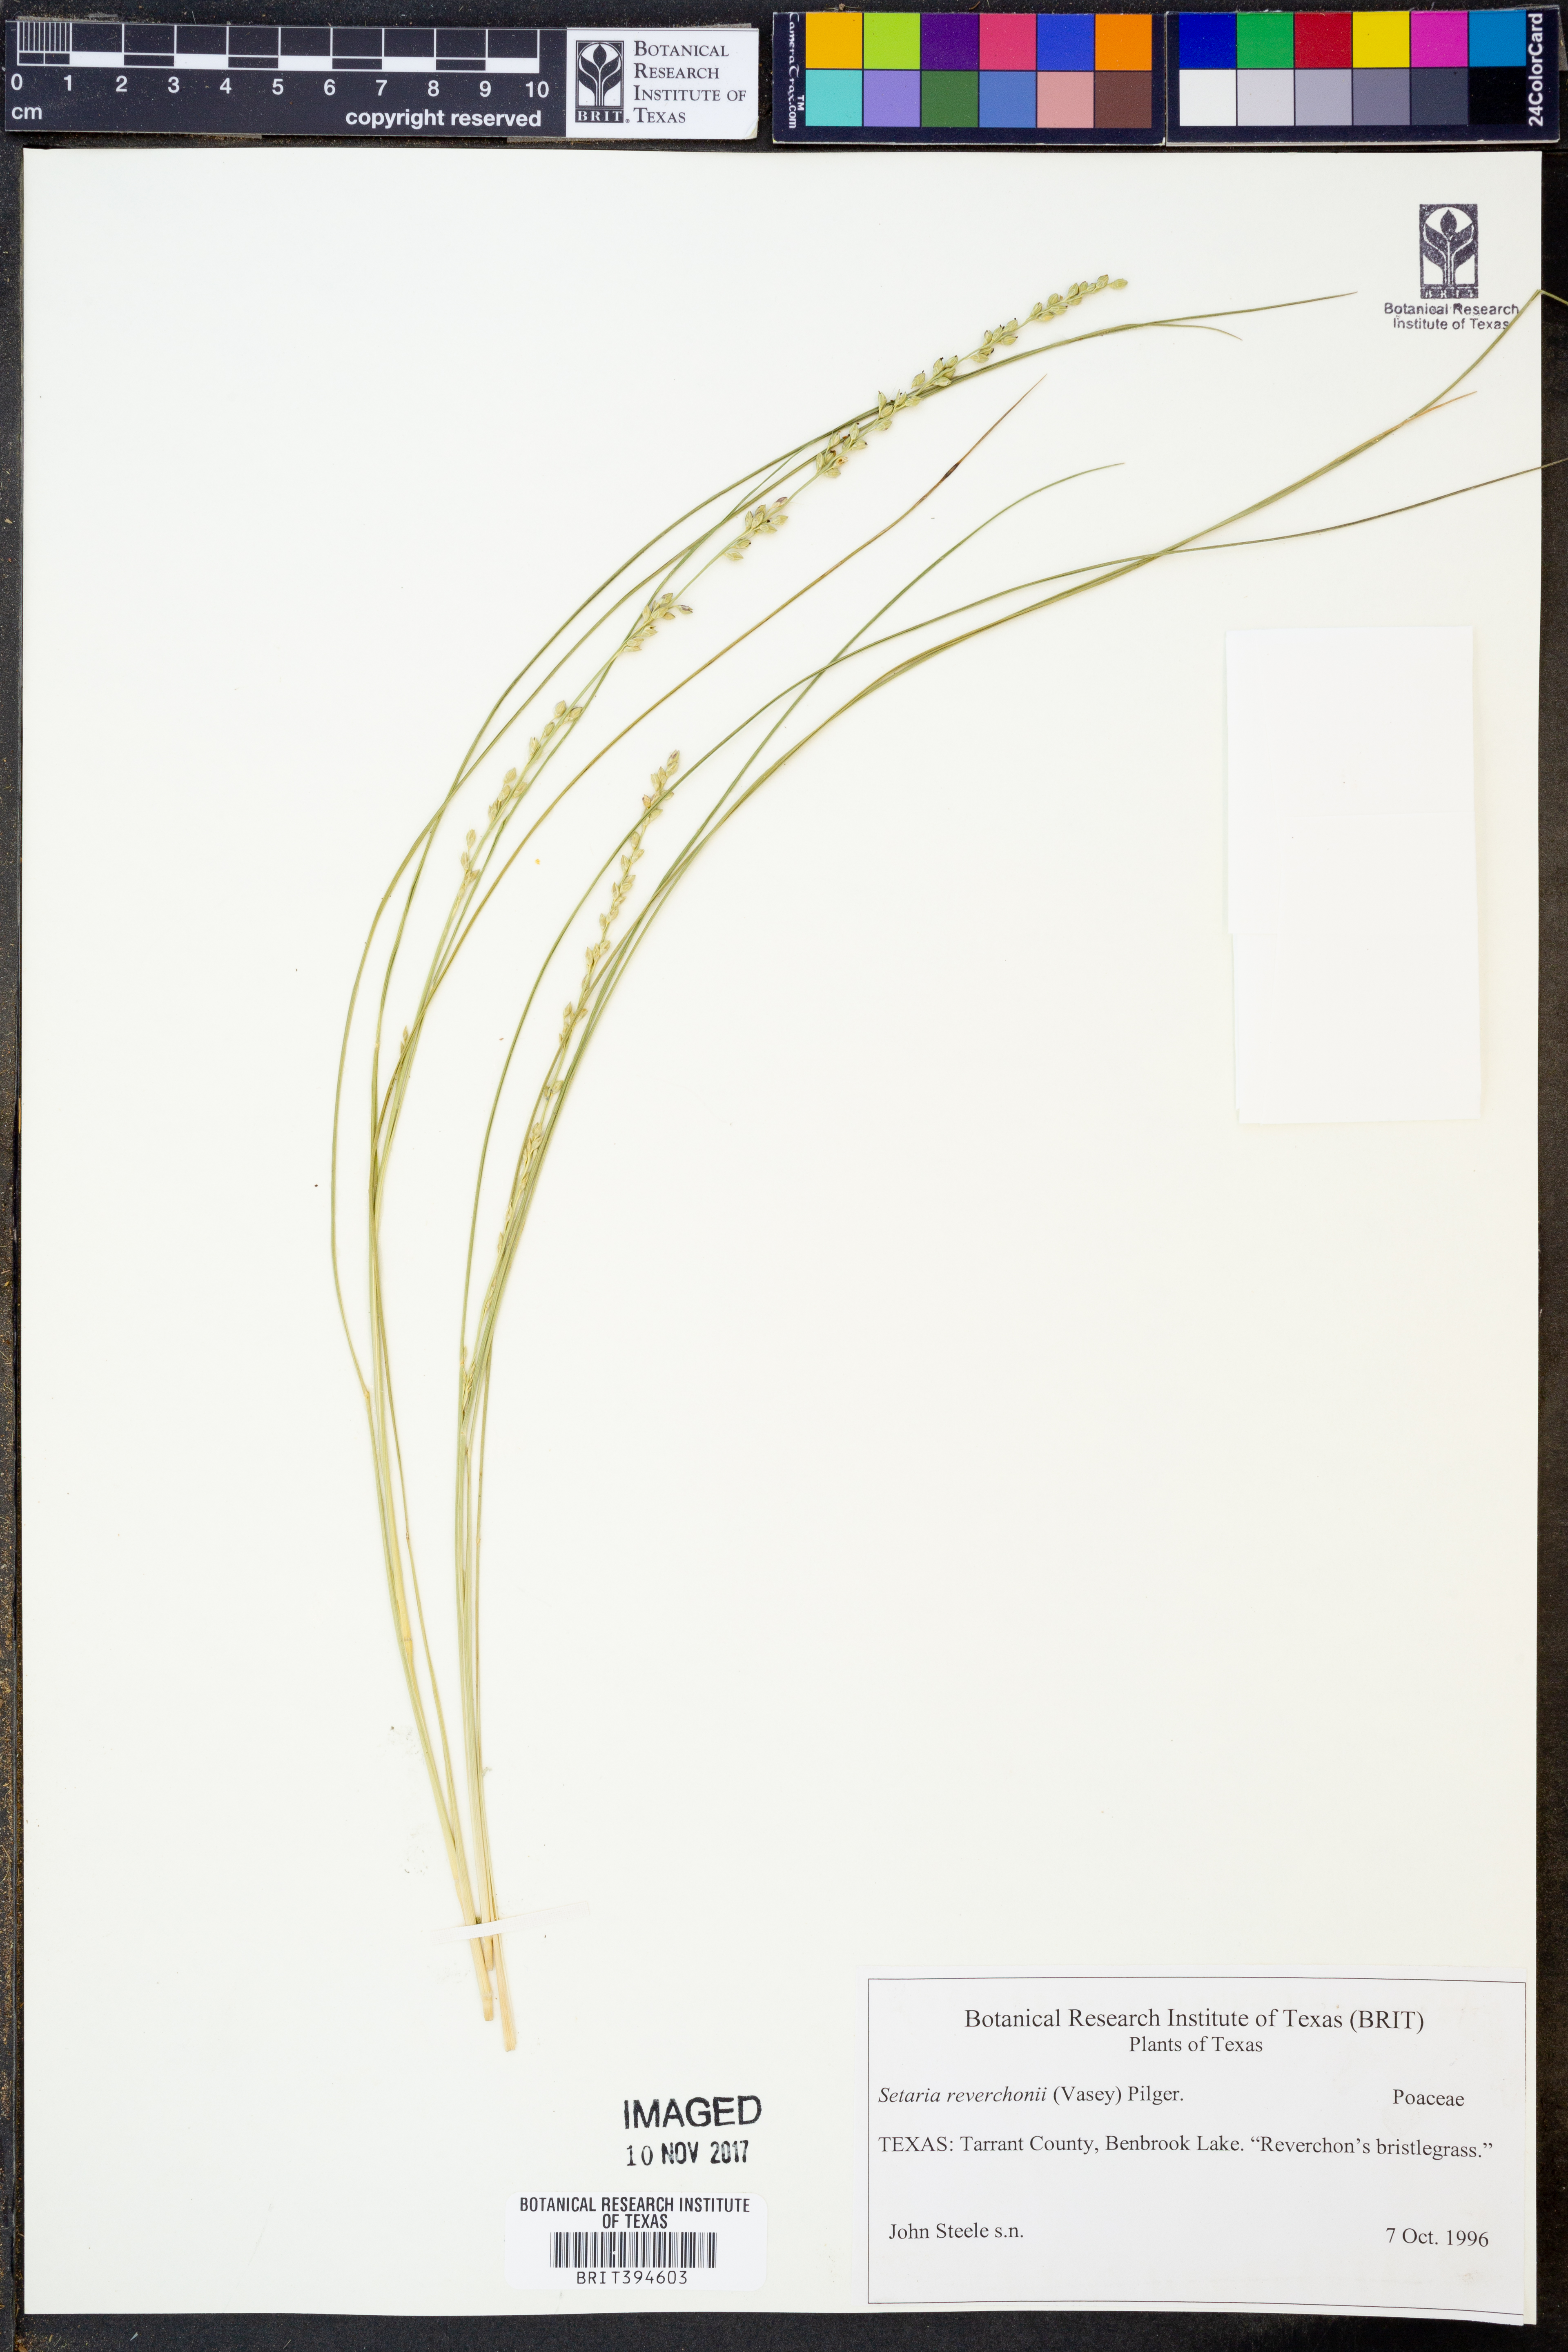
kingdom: Plantae
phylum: Tracheophyta
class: Liliopsida
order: Poales
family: Poaceae
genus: Setaria
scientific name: Setaria reverchonii
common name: Reverchon's bristle grass
